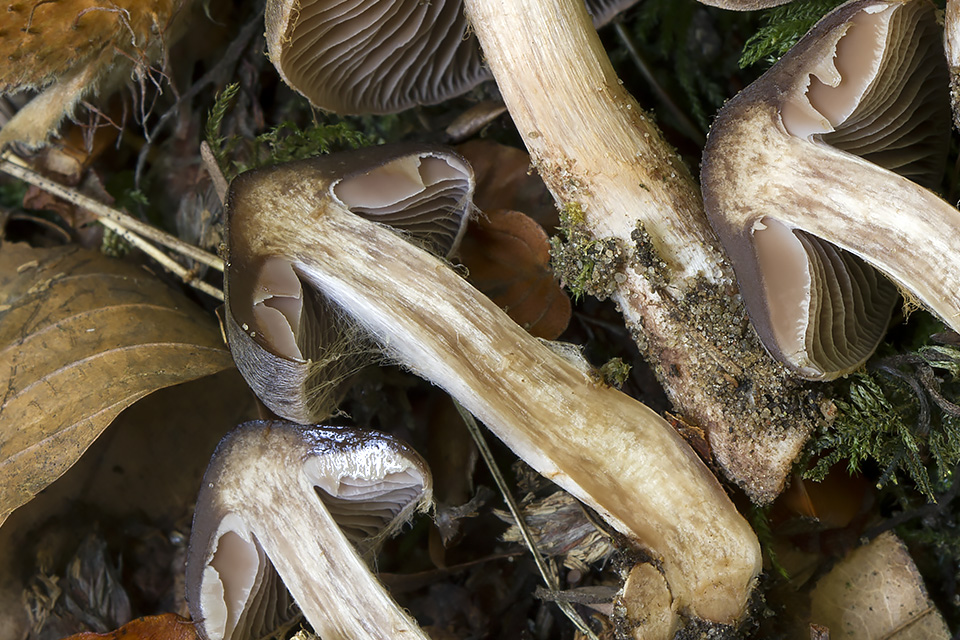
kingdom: Fungi
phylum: Basidiomycota
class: Agaricomycetes
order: Agaricales
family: Cortinariaceae
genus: Cortinarius
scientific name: Cortinarius inconspicuus
